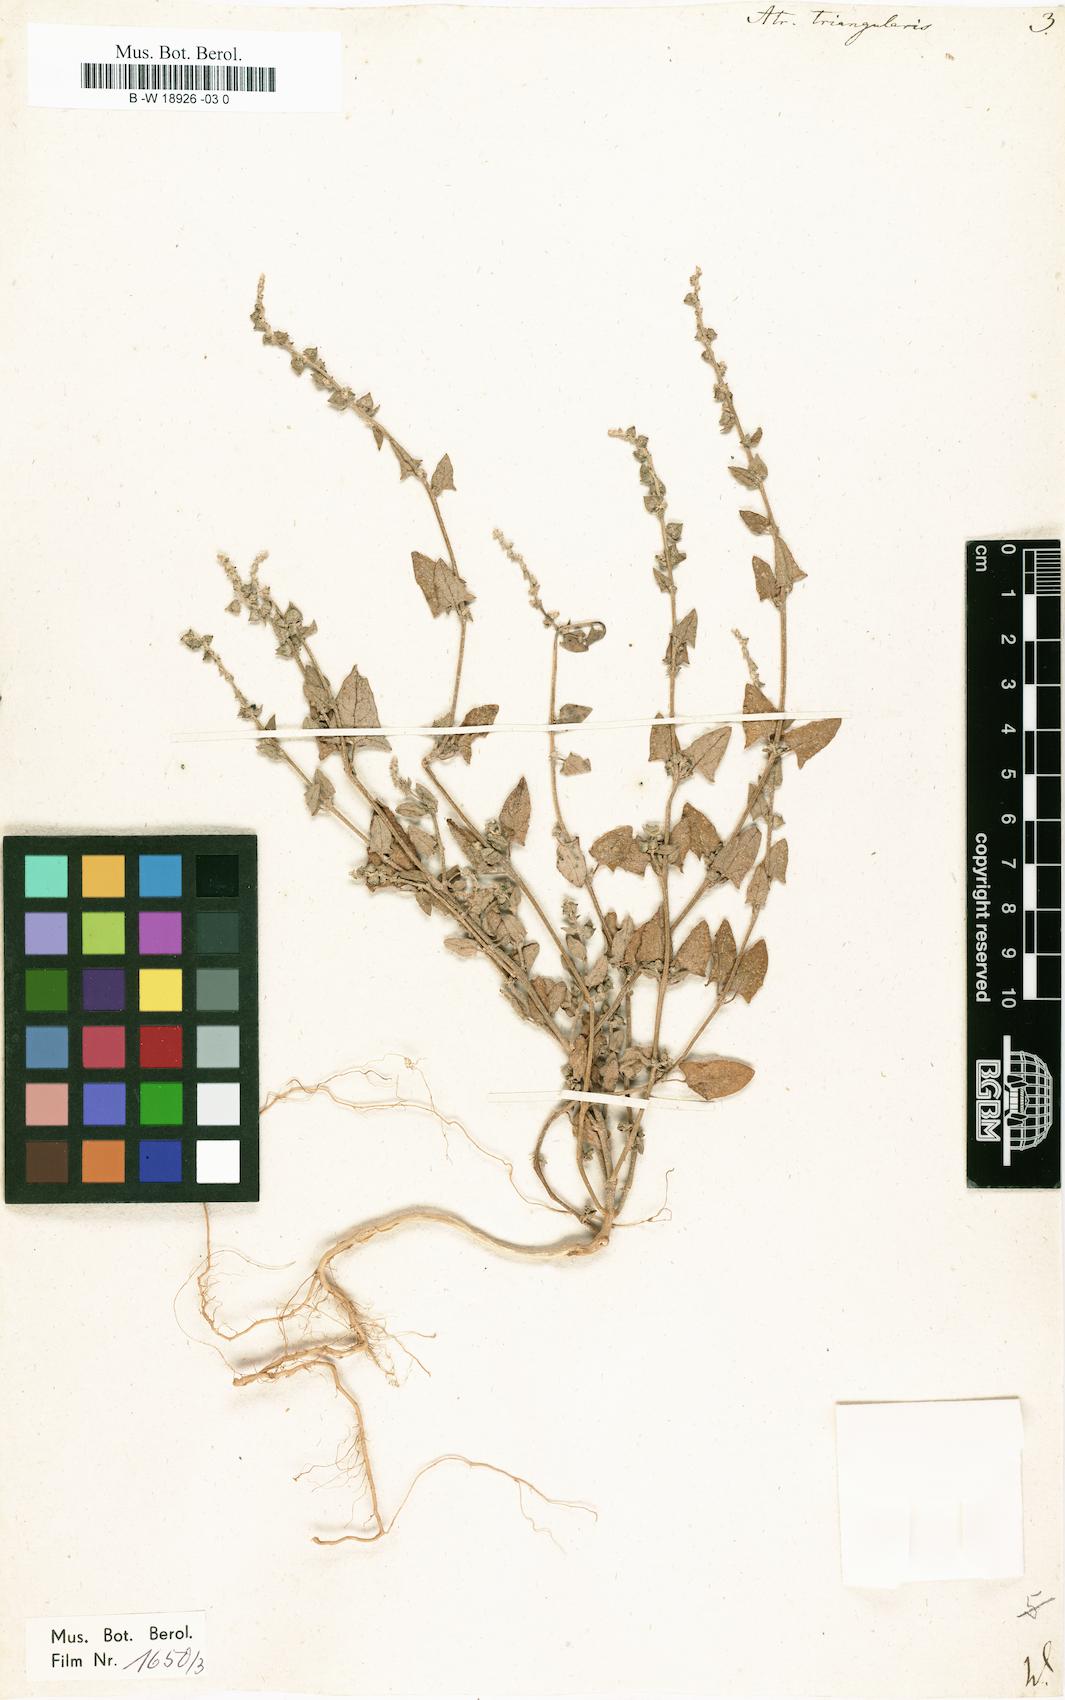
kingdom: Plantae
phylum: Tracheophyta
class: Magnoliopsida
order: Caryophyllales
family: Amaranthaceae
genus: Atriplex
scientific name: Atriplex prostrata
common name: Spear-leaved orache
